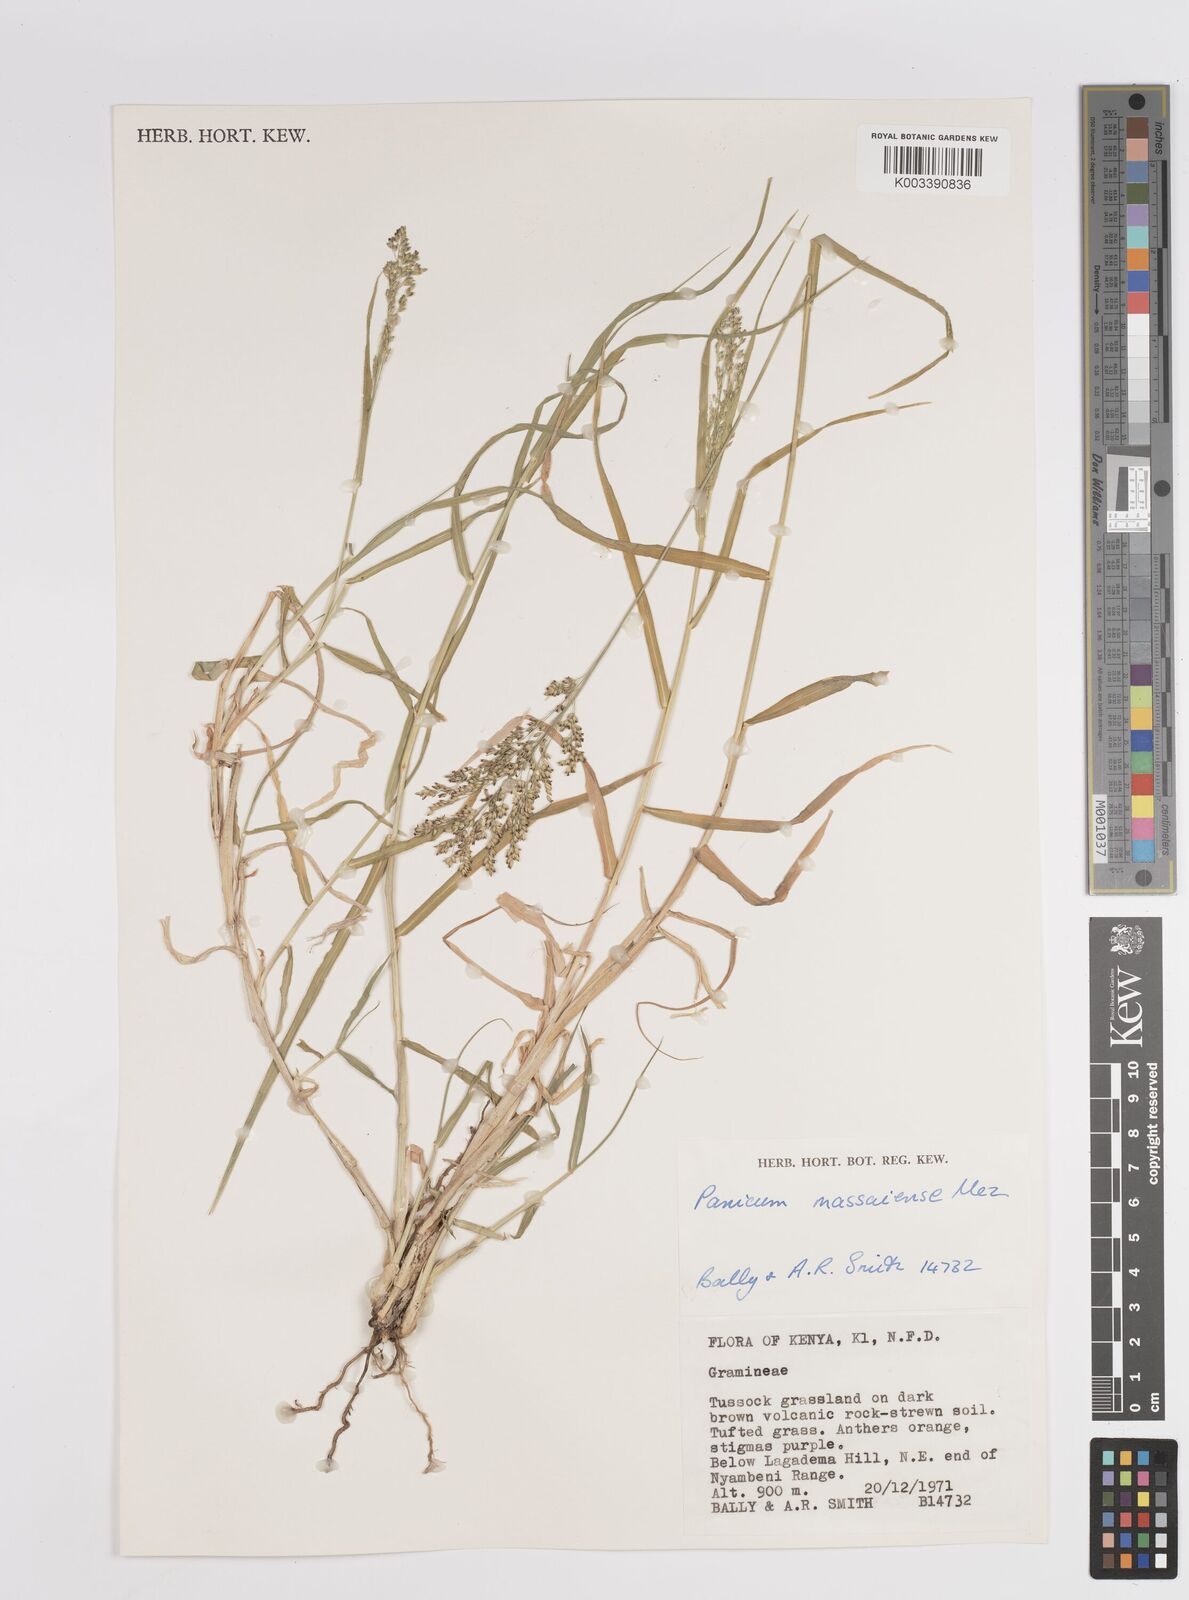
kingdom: Plantae
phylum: Tracheophyta
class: Liliopsida
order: Poales
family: Poaceae
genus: Panicum
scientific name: Panicum coloratum
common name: Kleingrass
